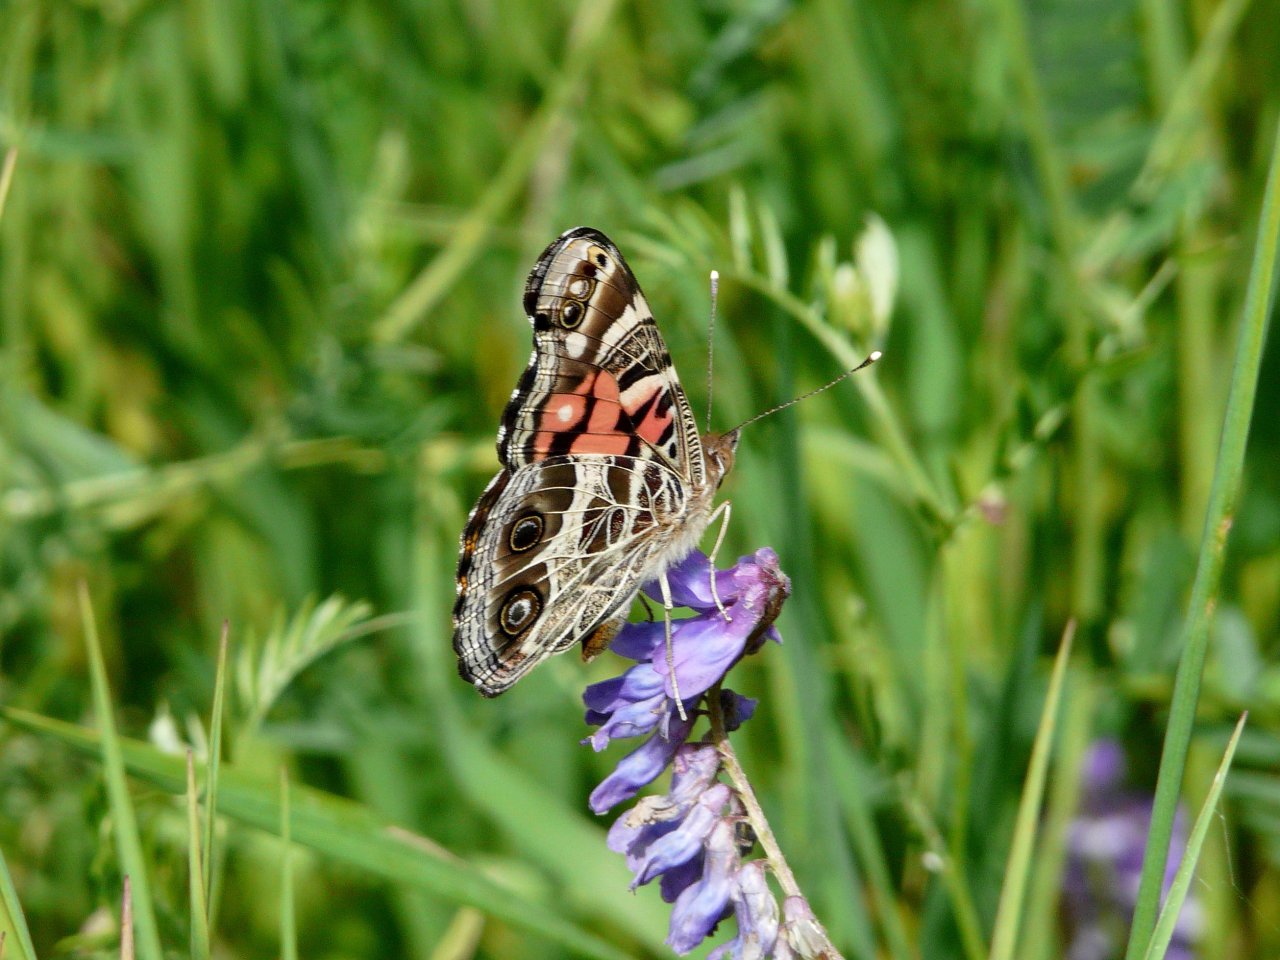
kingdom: Animalia
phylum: Arthropoda
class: Insecta
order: Lepidoptera
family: Nymphalidae
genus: Vanessa
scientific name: Vanessa virginiensis
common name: American Lady
